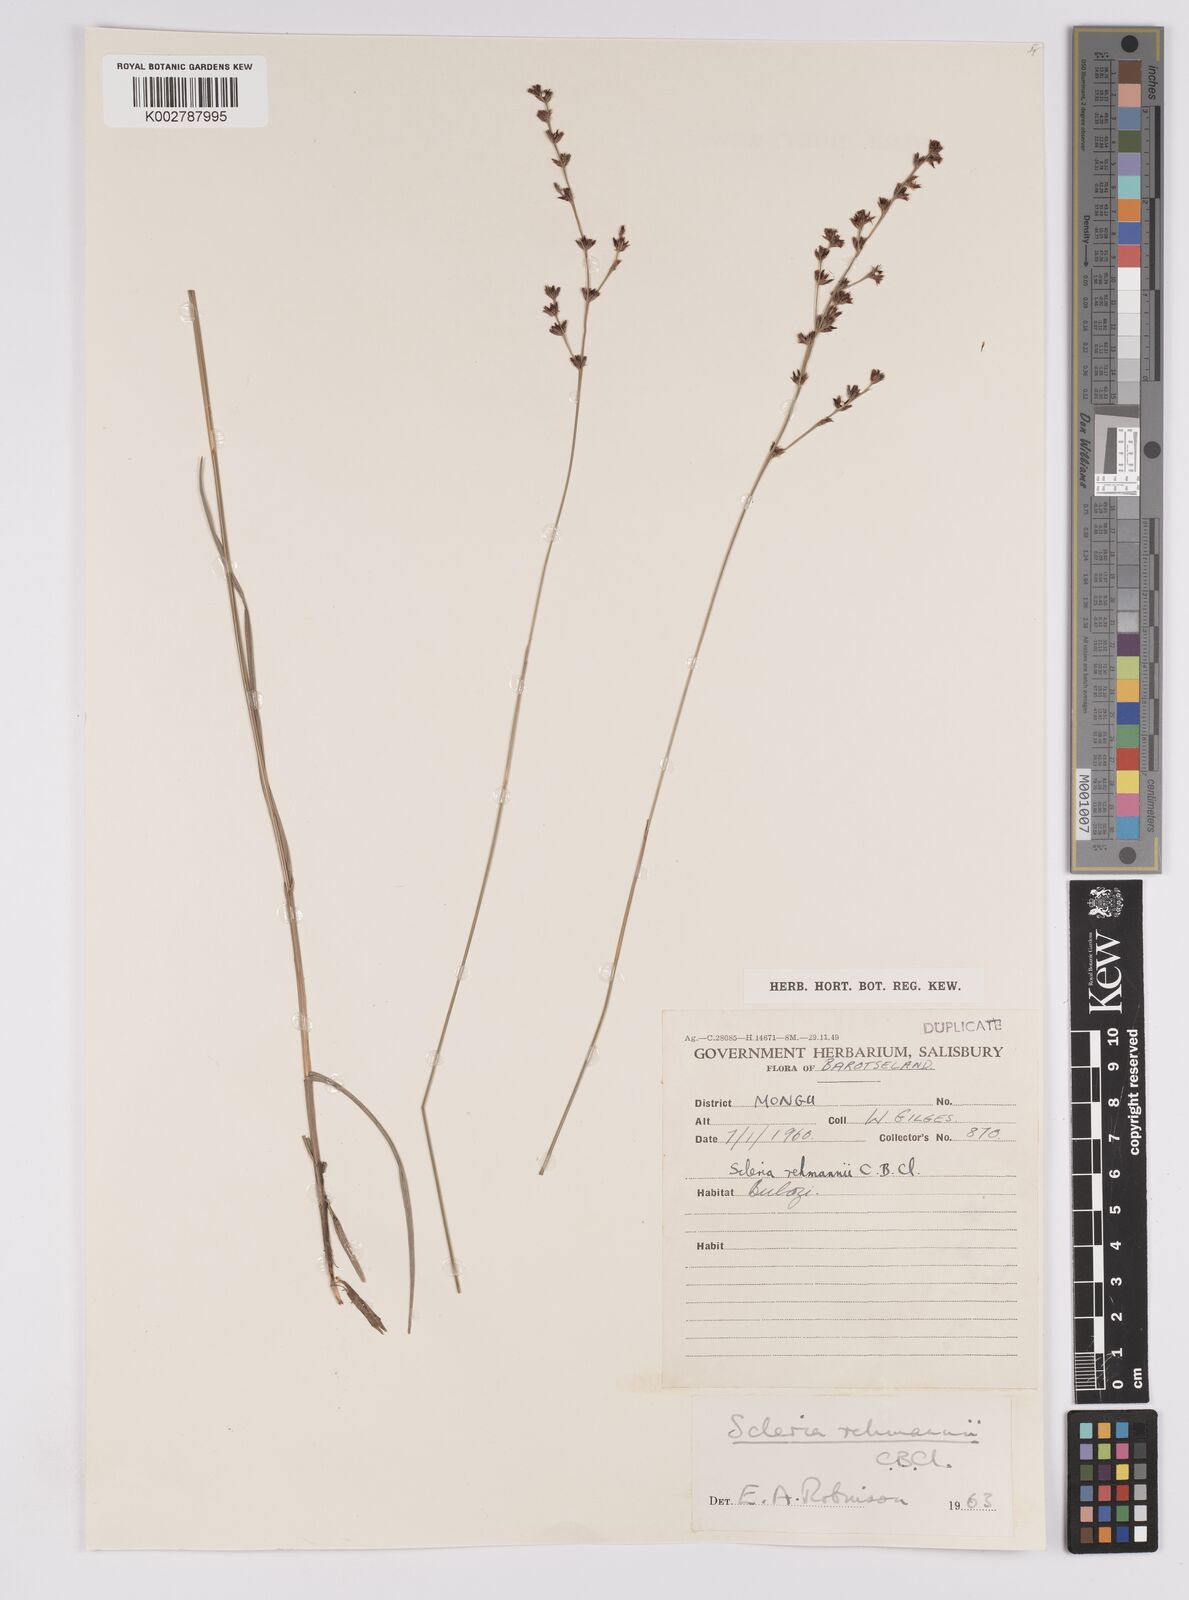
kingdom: Plantae
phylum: Tracheophyta
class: Liliopsida
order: Poales
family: Cyperaceae
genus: Scleria
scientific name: Scleria rehmannii
